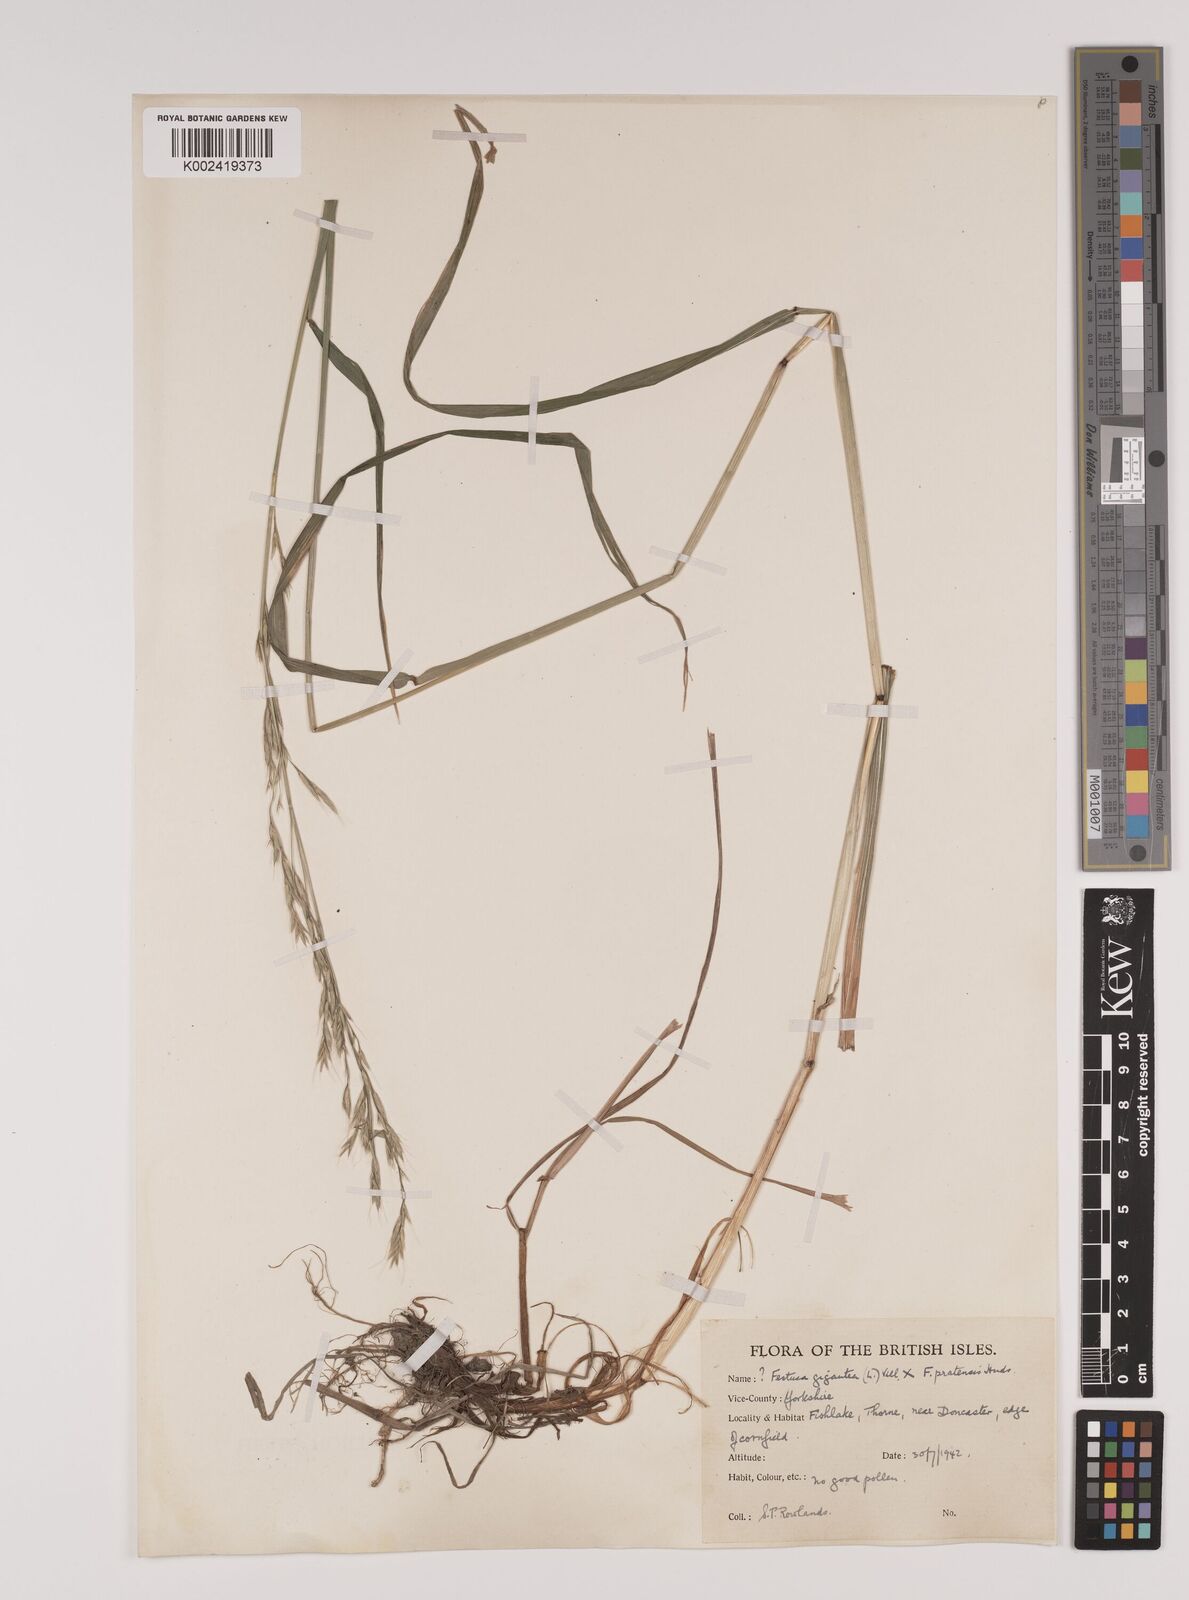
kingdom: Plantae
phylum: Tracheophyta
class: Liliopsida
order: Poales
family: Poaceae
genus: Lolium
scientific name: Lolium giganteum
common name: Giant fescue
